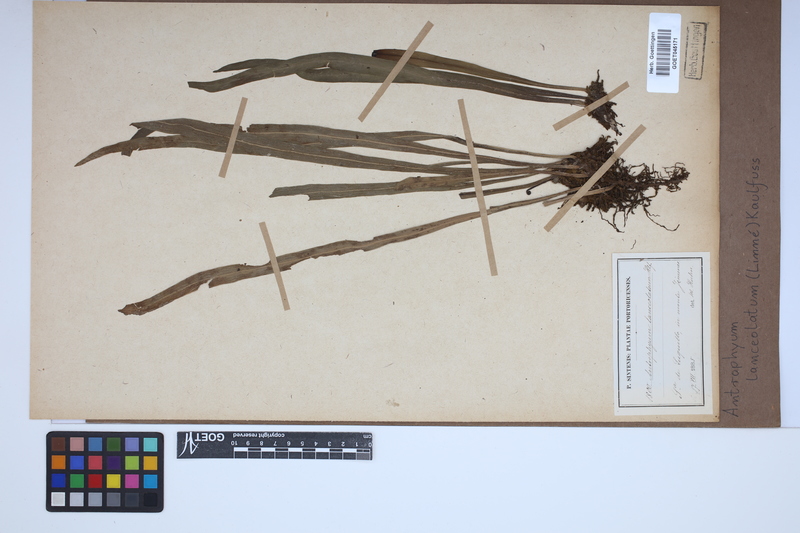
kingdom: Plantae
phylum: Tracheophyta
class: Polypodiopsida
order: Polypodiales
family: Pteridaceae
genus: Polytaenium
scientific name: Polytaenium feei
